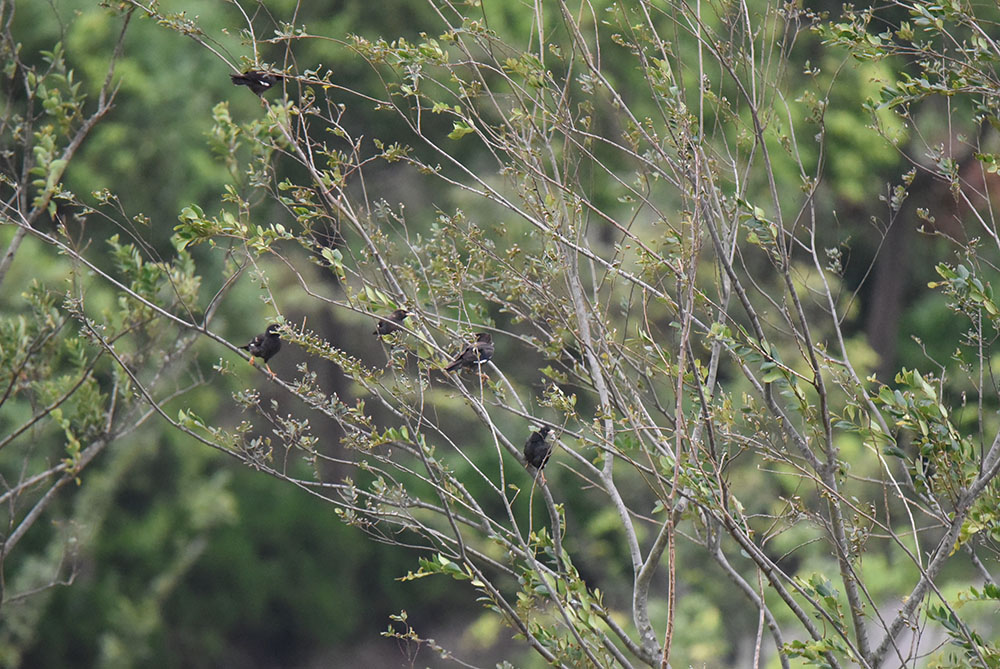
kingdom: Animalia
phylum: Chordata
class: Aves
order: Passeriformes
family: Sturnidae
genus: Acridotheres
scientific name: Acridotheres cristatellus
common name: Crested myna
